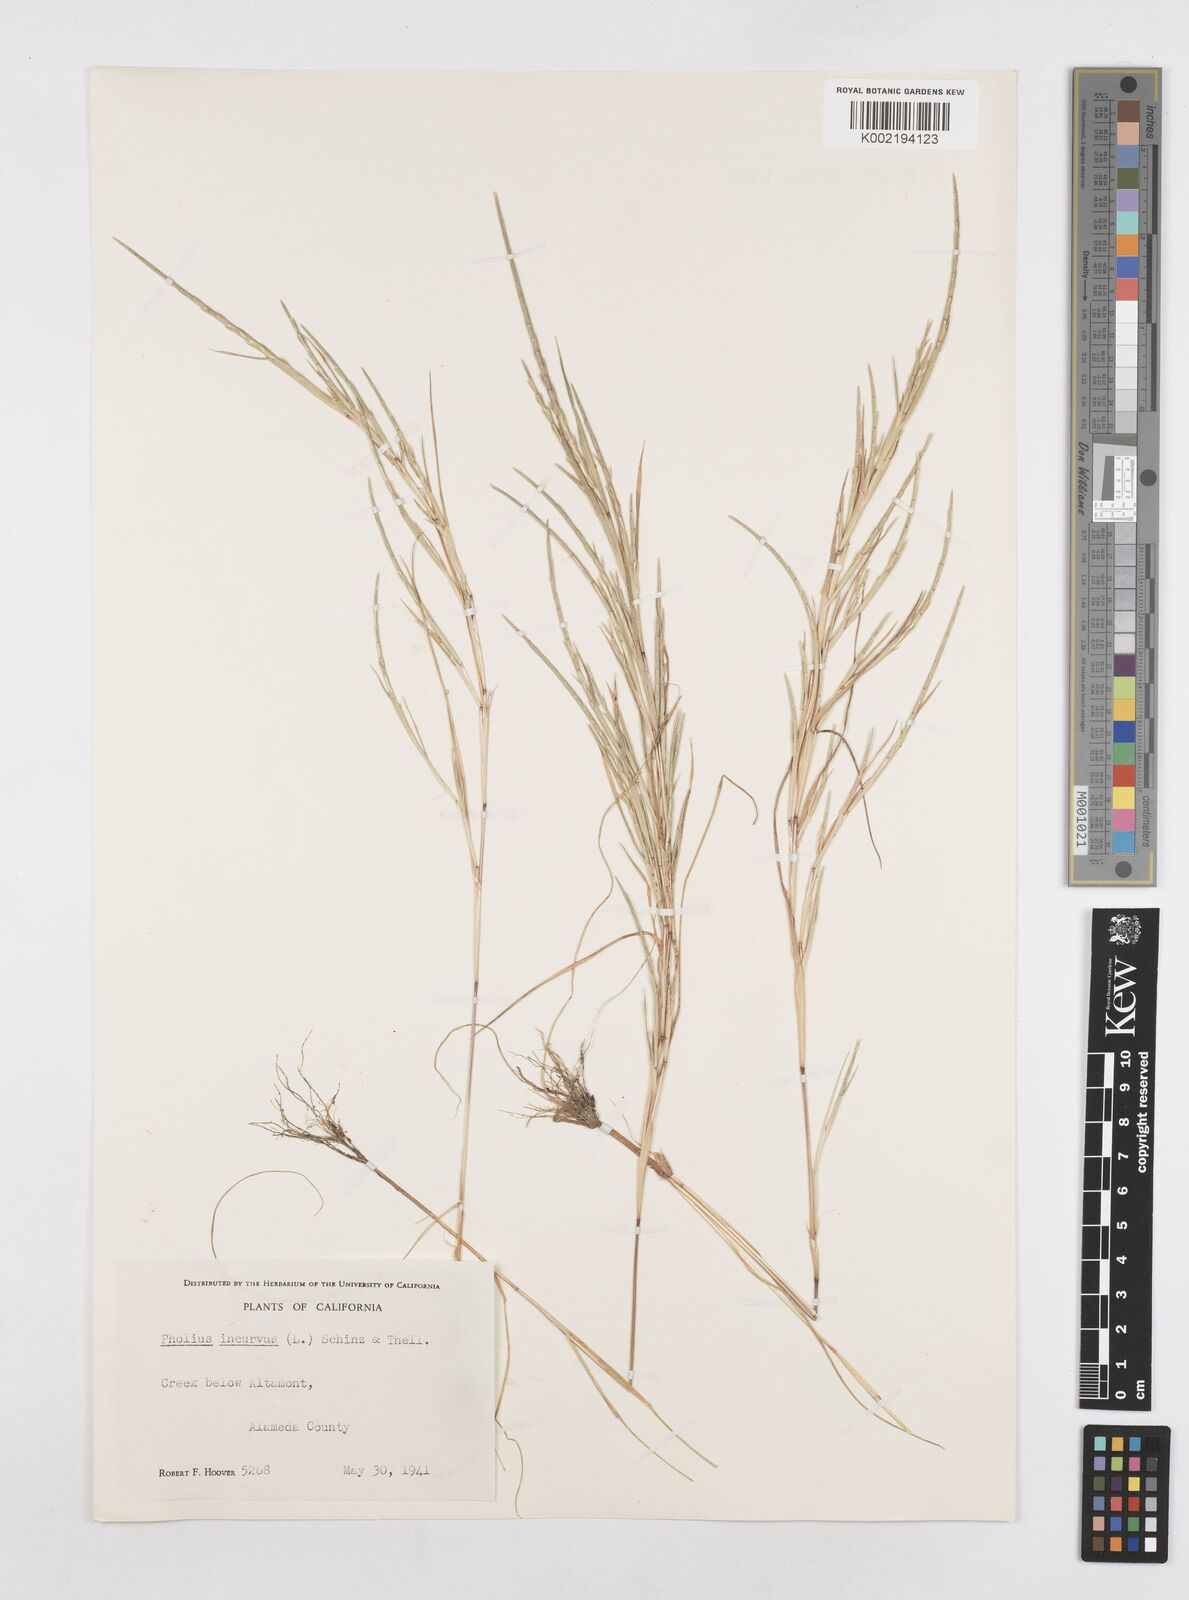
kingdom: Plantae
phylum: Tracheophyta
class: Liliopsida
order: Poales
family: Poaceae
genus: Parapholis
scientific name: Parapholis incurva
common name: Curved sicklegrass
